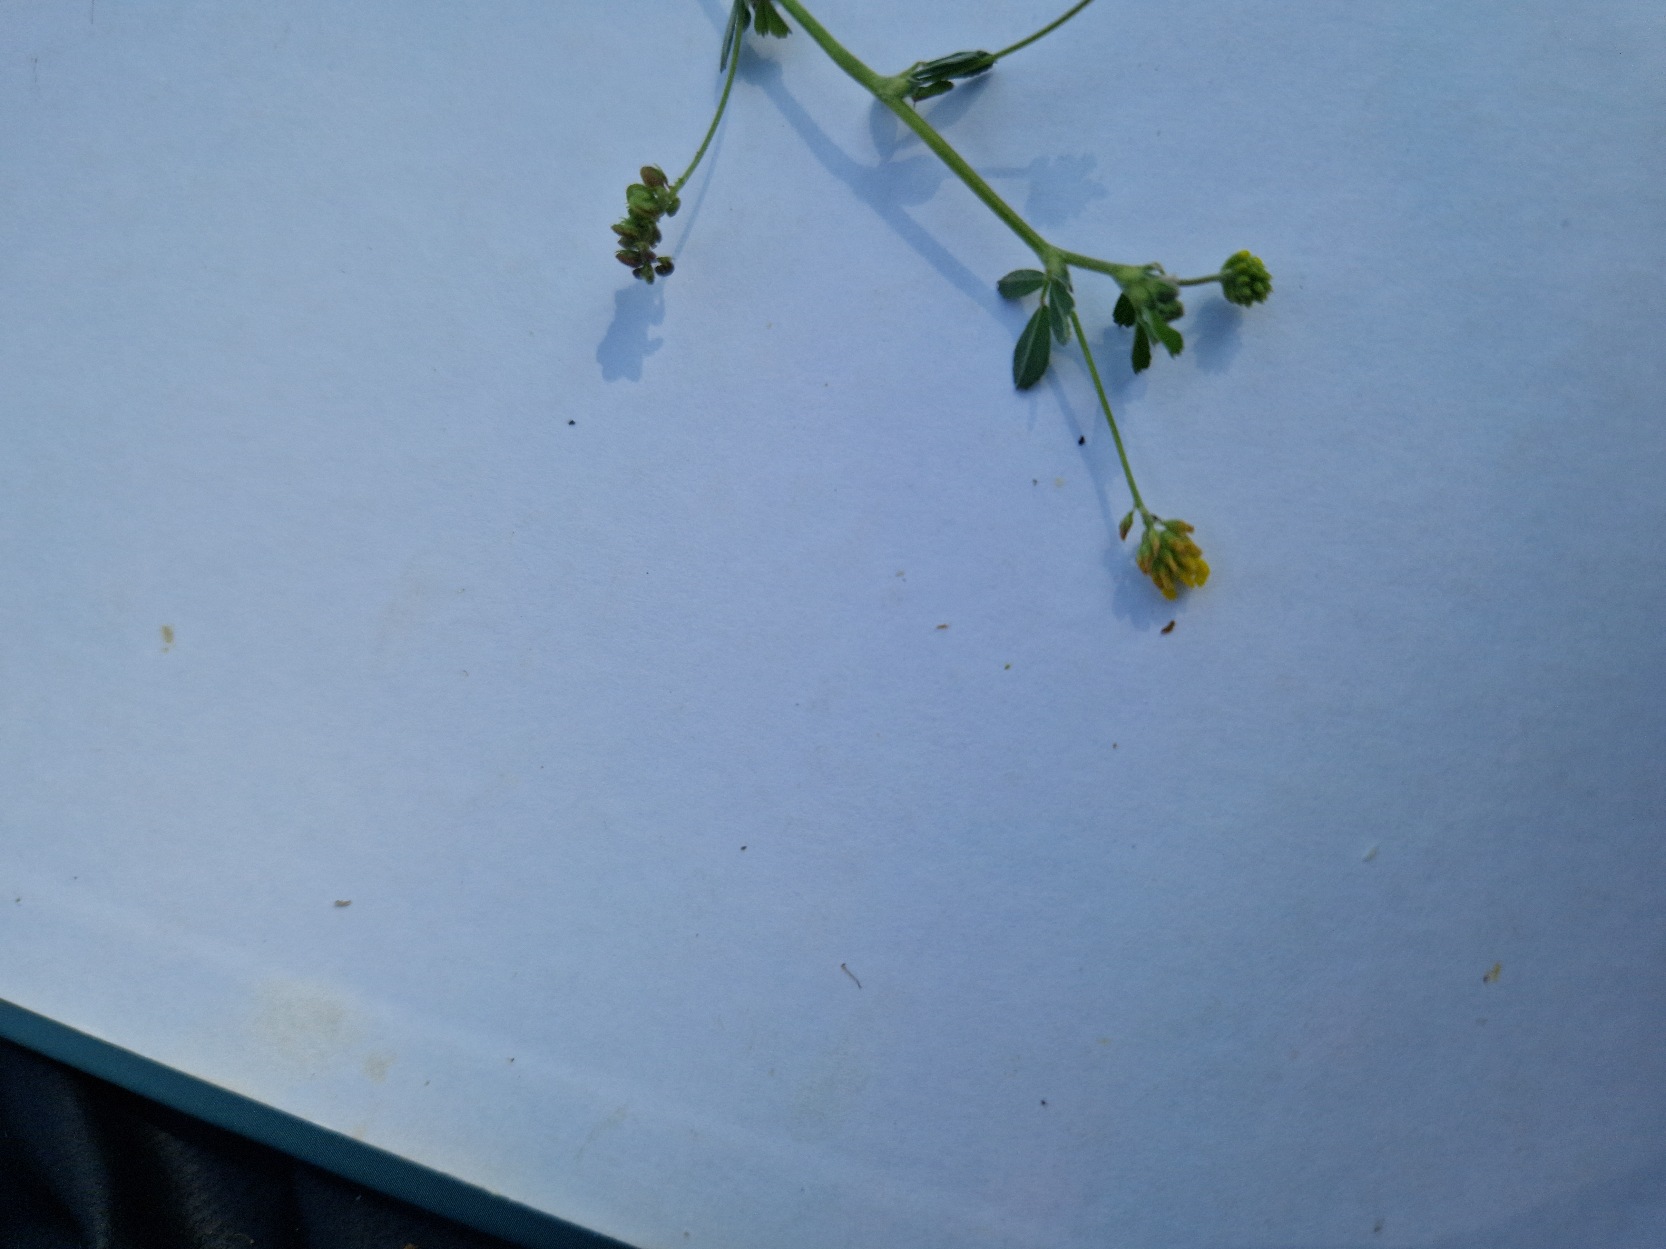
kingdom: Plantae
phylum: Tracheophyta
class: Magnoliopsida
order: Fabales
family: Fabaceae
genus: Medicago
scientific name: Medicago lupulina
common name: Humle-sneglebælg
